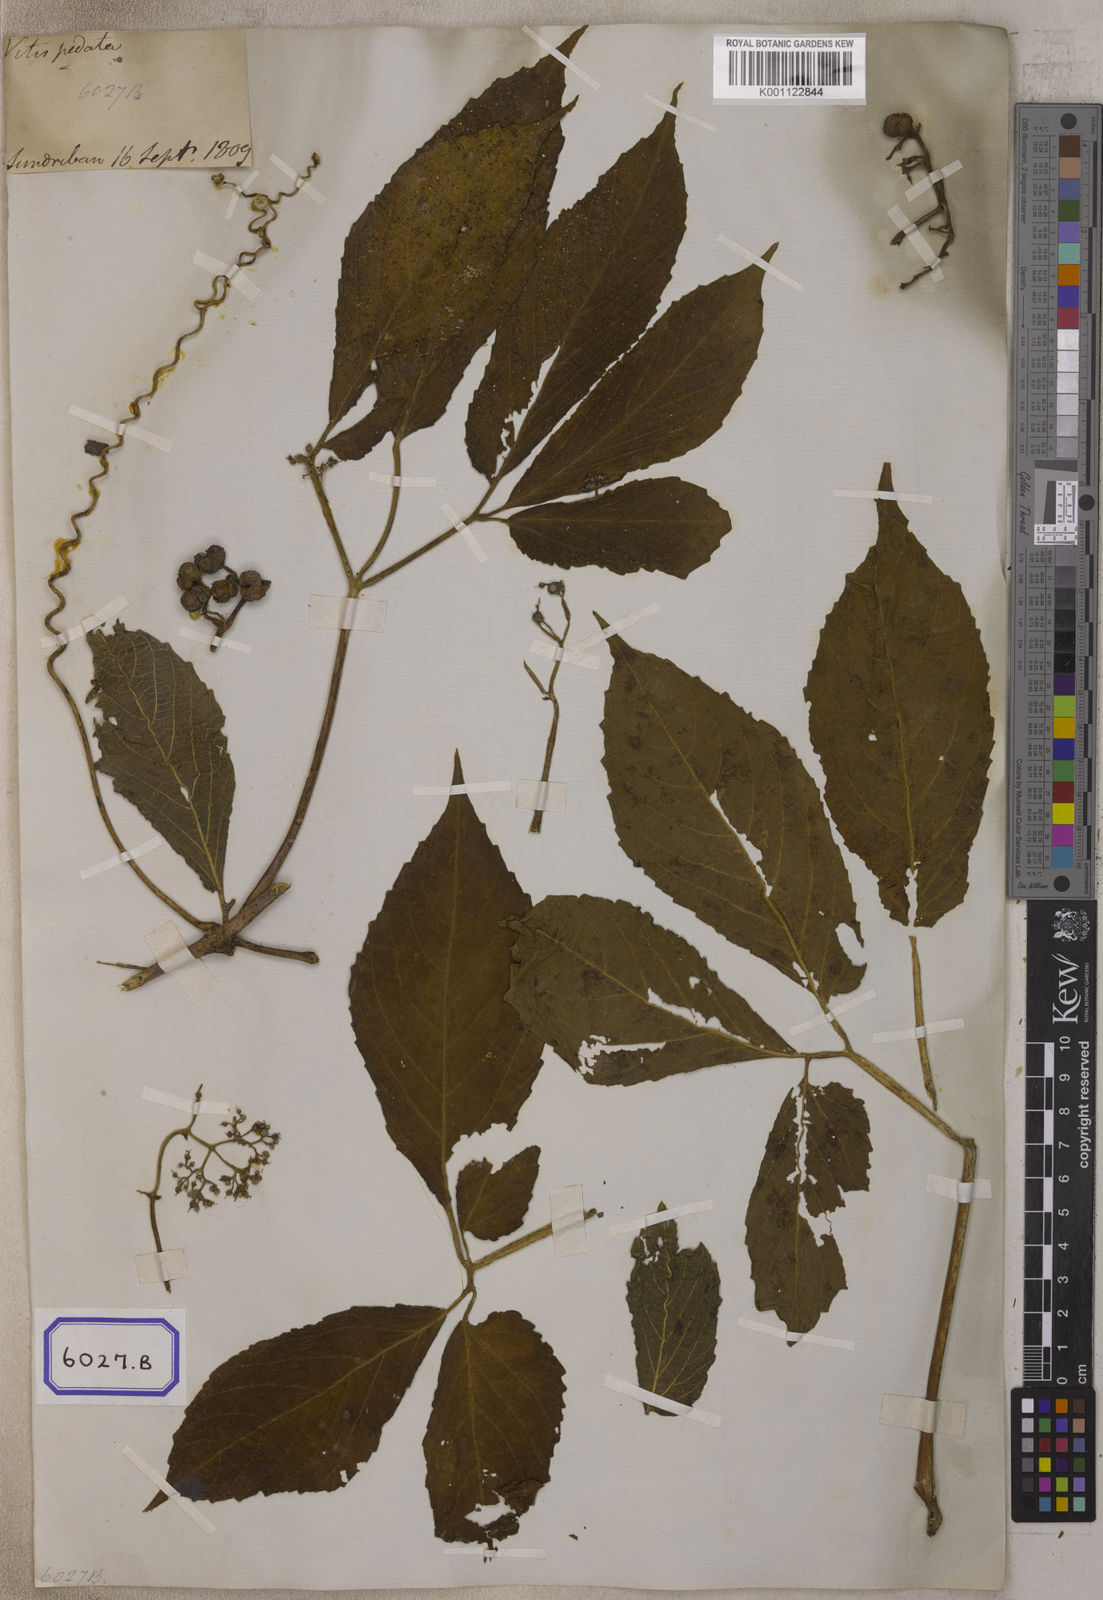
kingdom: Plantae
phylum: Tracheophyta
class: Magnoliopsida
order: Vitales
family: Vitaceae
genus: Cayratia
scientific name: Cayratia pedata
